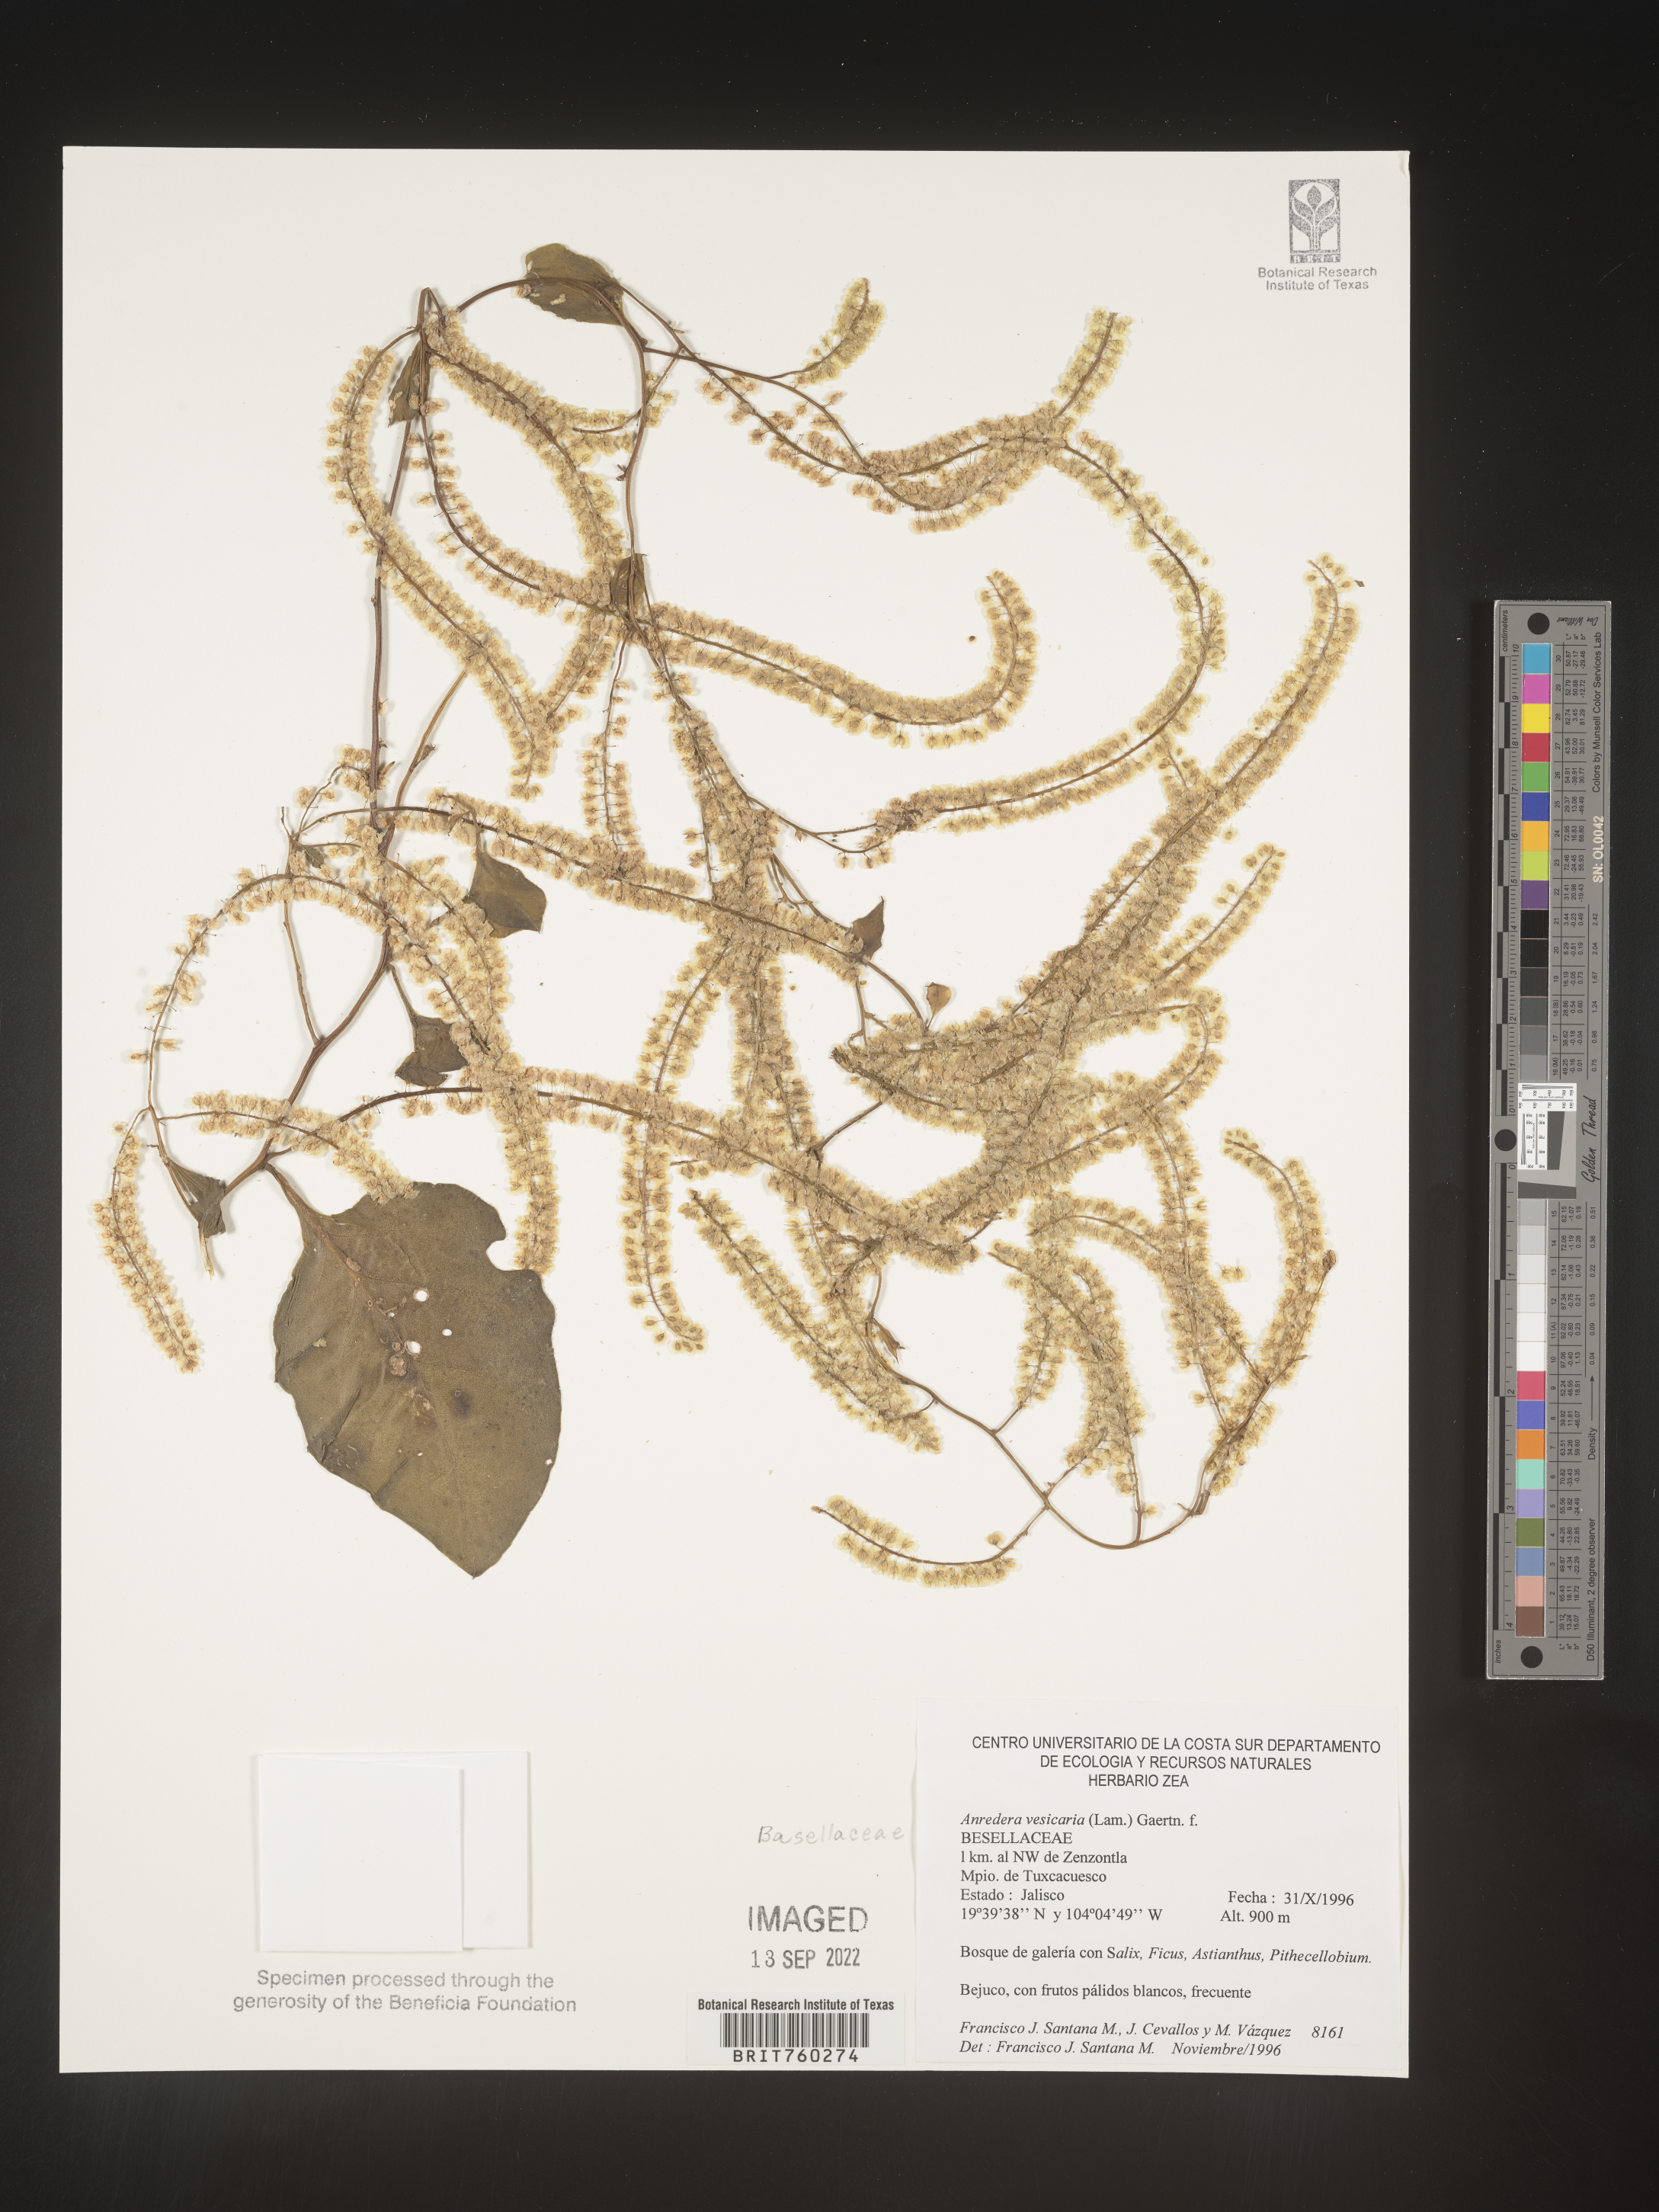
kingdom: Plantae
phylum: Tracheophyta
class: Magnoliopsida
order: Caryophyllales
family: Basellaceae
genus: Anredera
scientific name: Anredera
